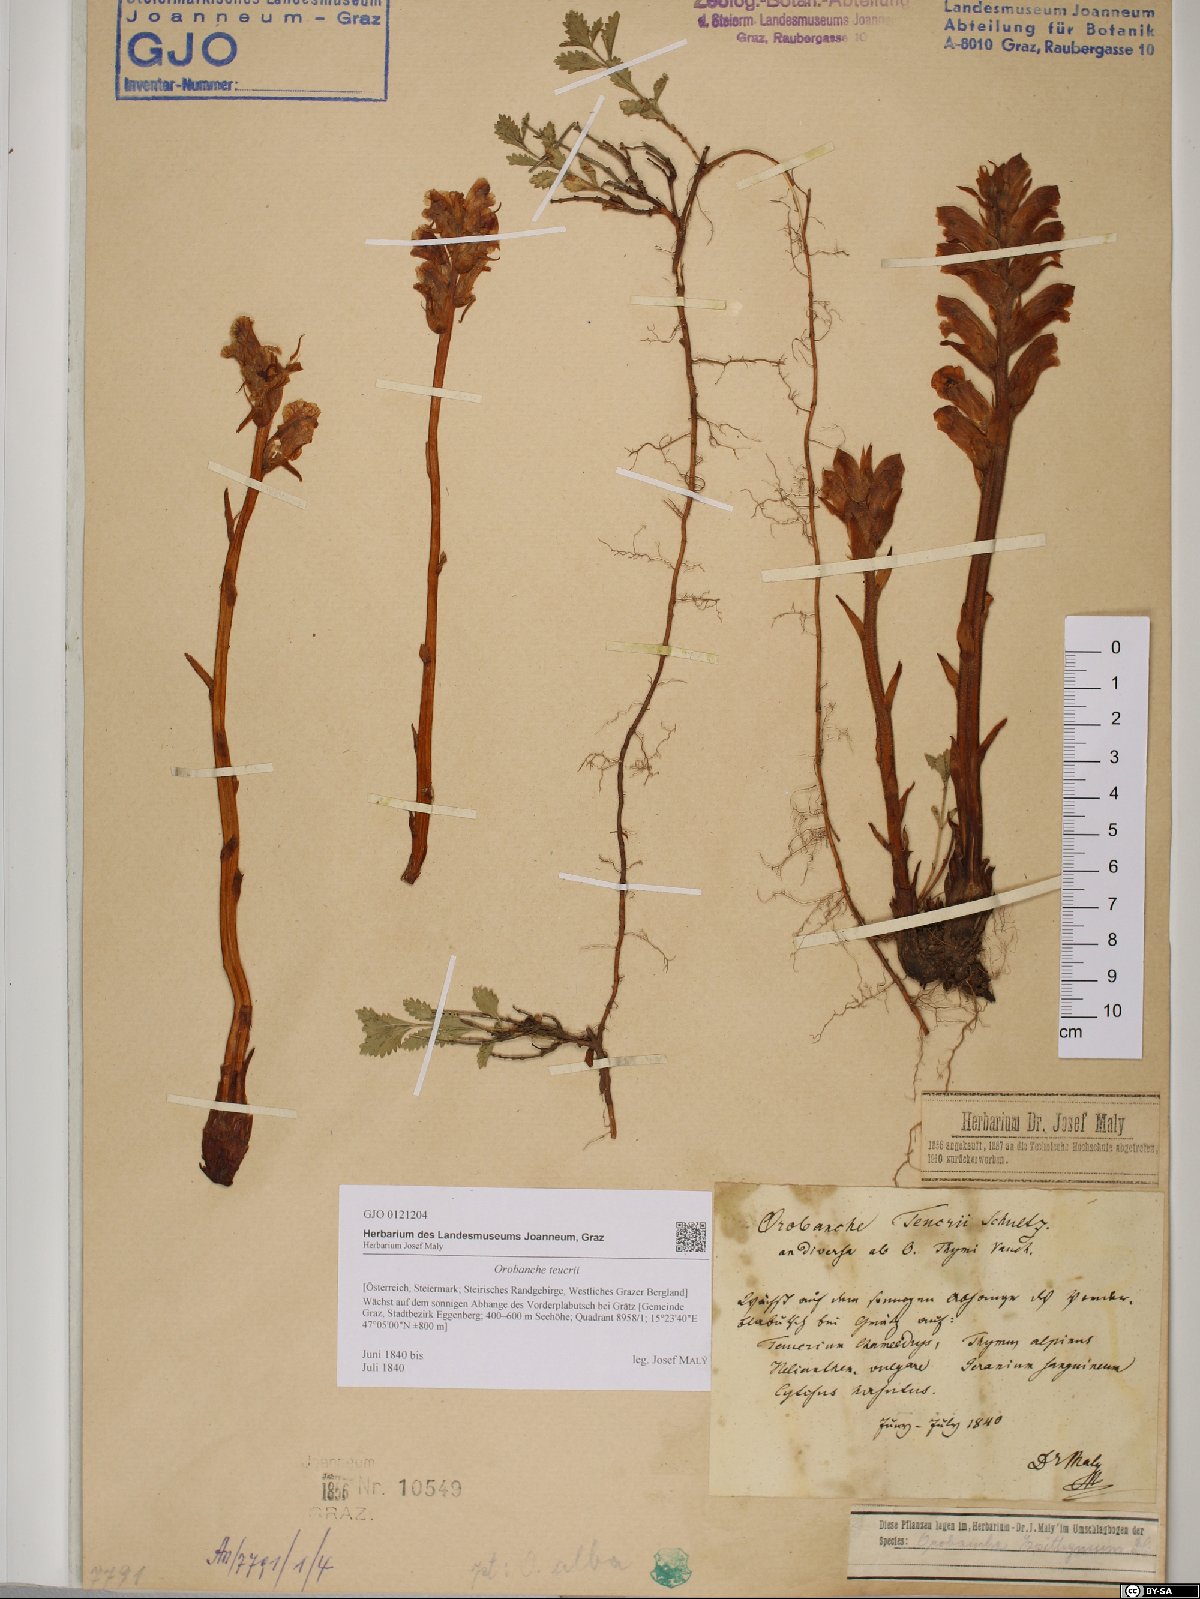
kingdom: Plantae
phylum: Tracheophyta
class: Magnoliopsida
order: Lamiales
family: Orobanchaceae
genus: Orobanche
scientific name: Orobanche teucrii
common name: Germander broomrape
